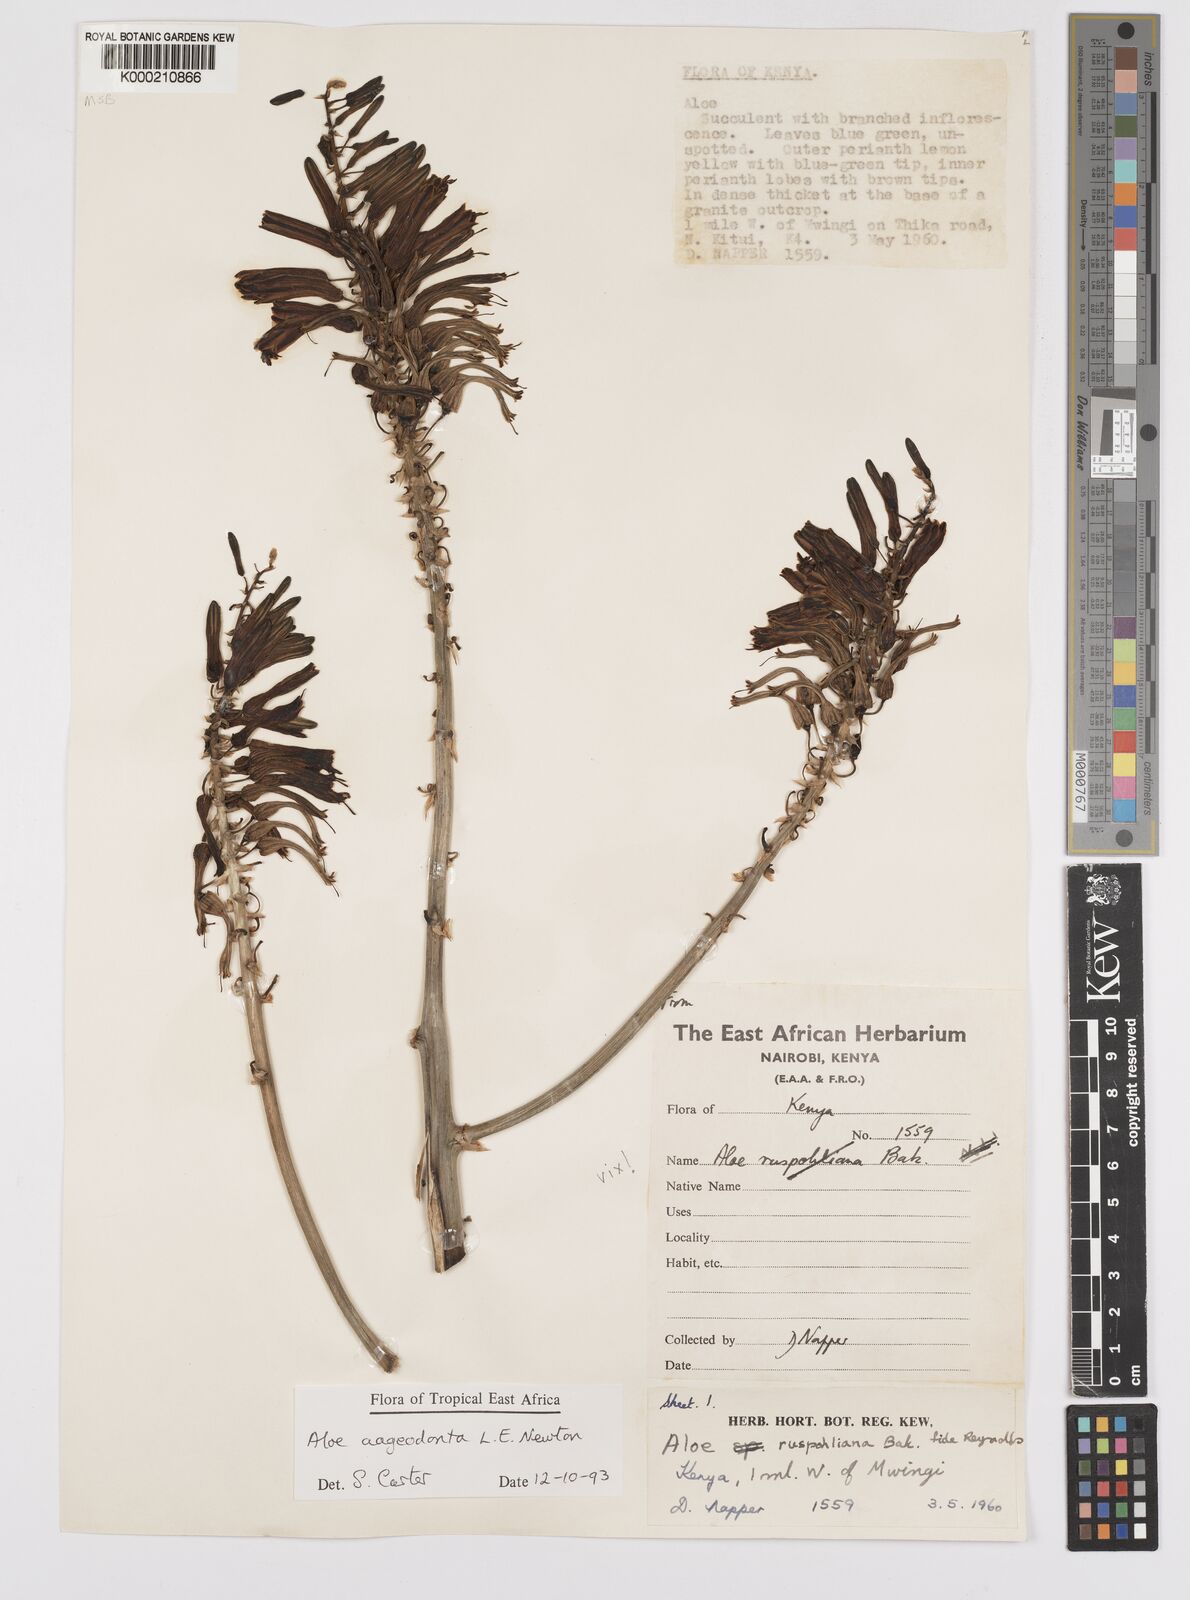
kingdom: Plantae
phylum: Tracheophyta
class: Liliopsida
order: Asparagales
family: Asphodelaceae
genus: Aloe
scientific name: Aloe aageodonta
